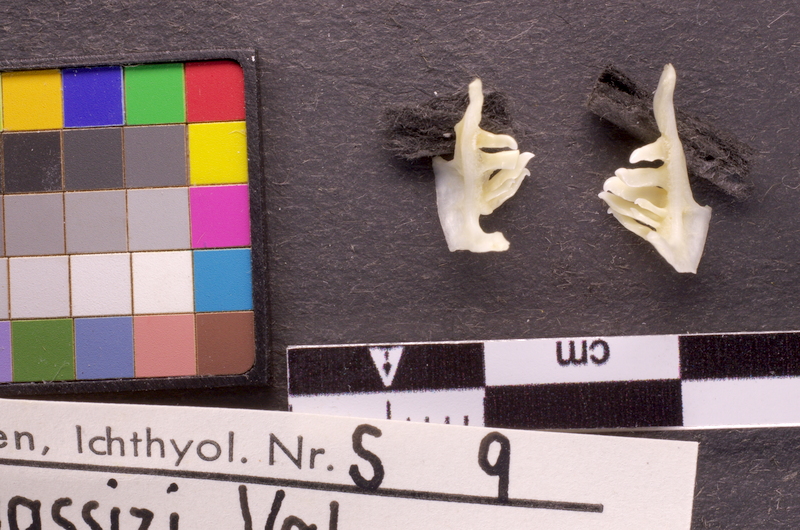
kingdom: Animalia
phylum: Chordata
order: Cypriniformes
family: Cyprinidae
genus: Telestes
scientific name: Telestes souffia
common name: Souffia
